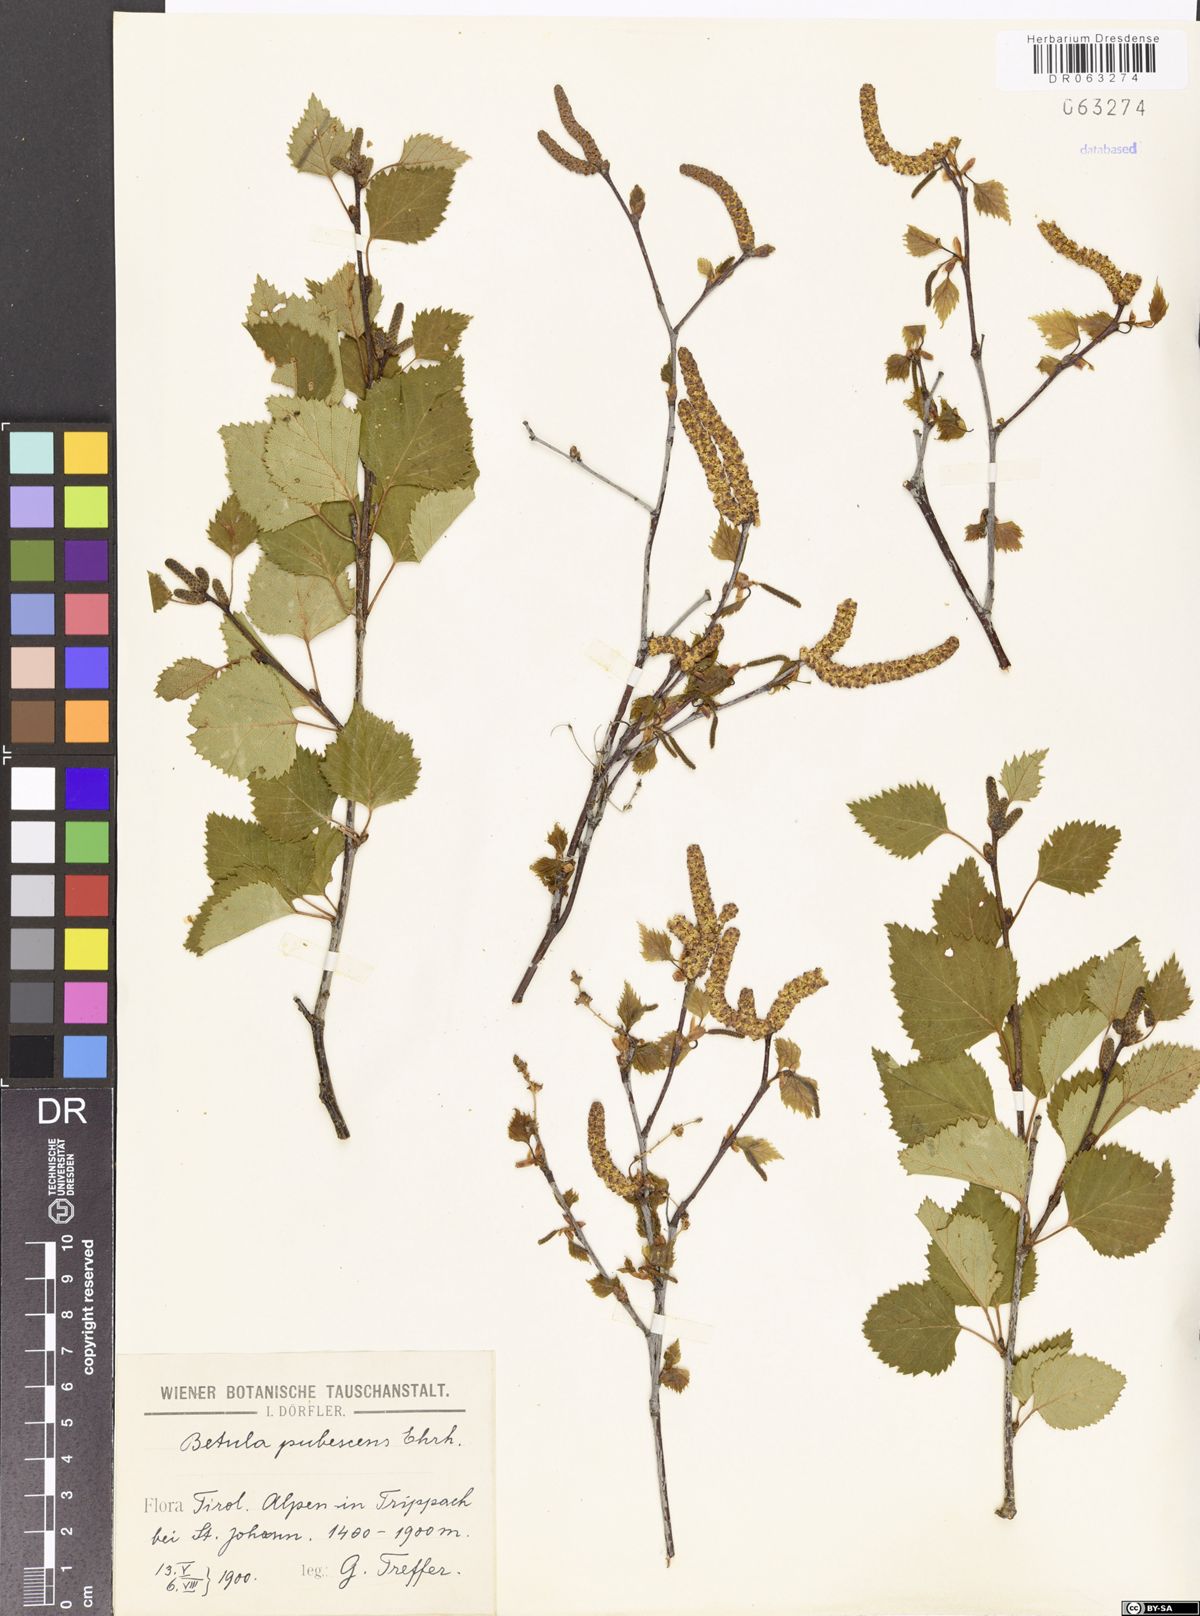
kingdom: Plantae
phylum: Tracheophyta
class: Magnoliopsida
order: Fagales
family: Betulaceae
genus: Betula
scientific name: Betula pubescens
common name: Downy birch
